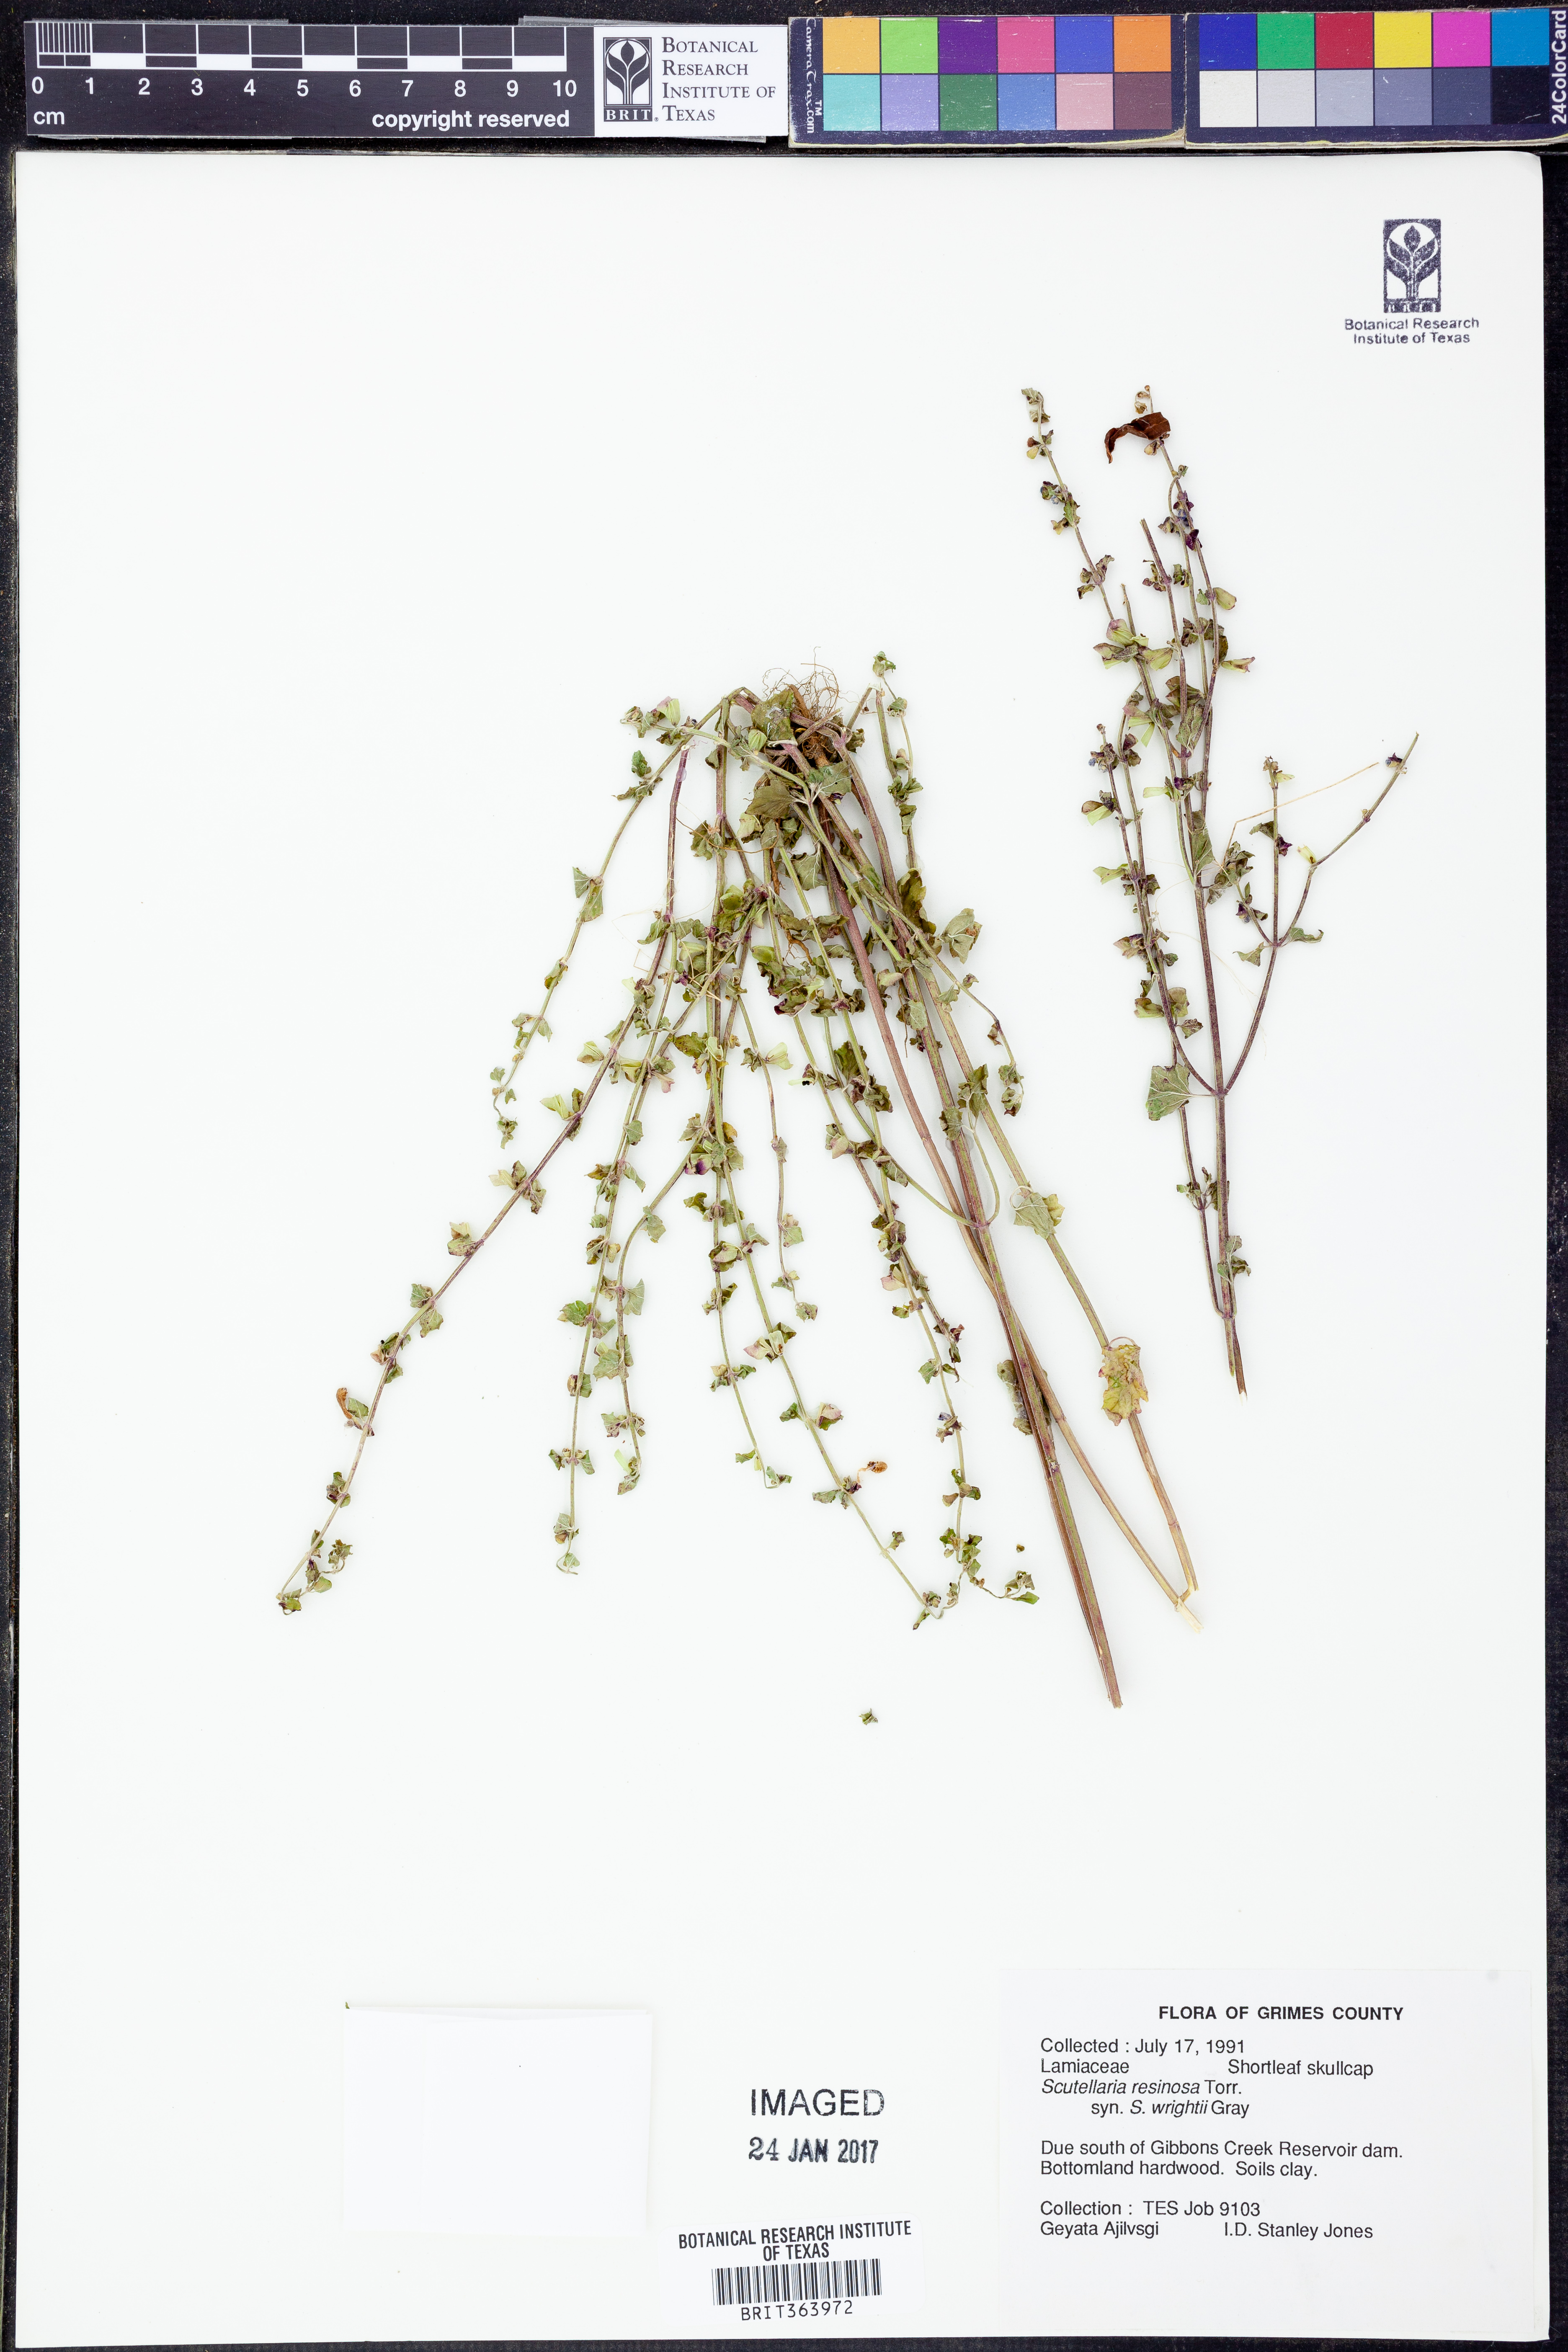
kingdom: Plantae
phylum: Tracheophyta
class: Magnoliopsida
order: Lamiales
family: Lamiaceae
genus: Scutellaria
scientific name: Scutellaria resinosa
